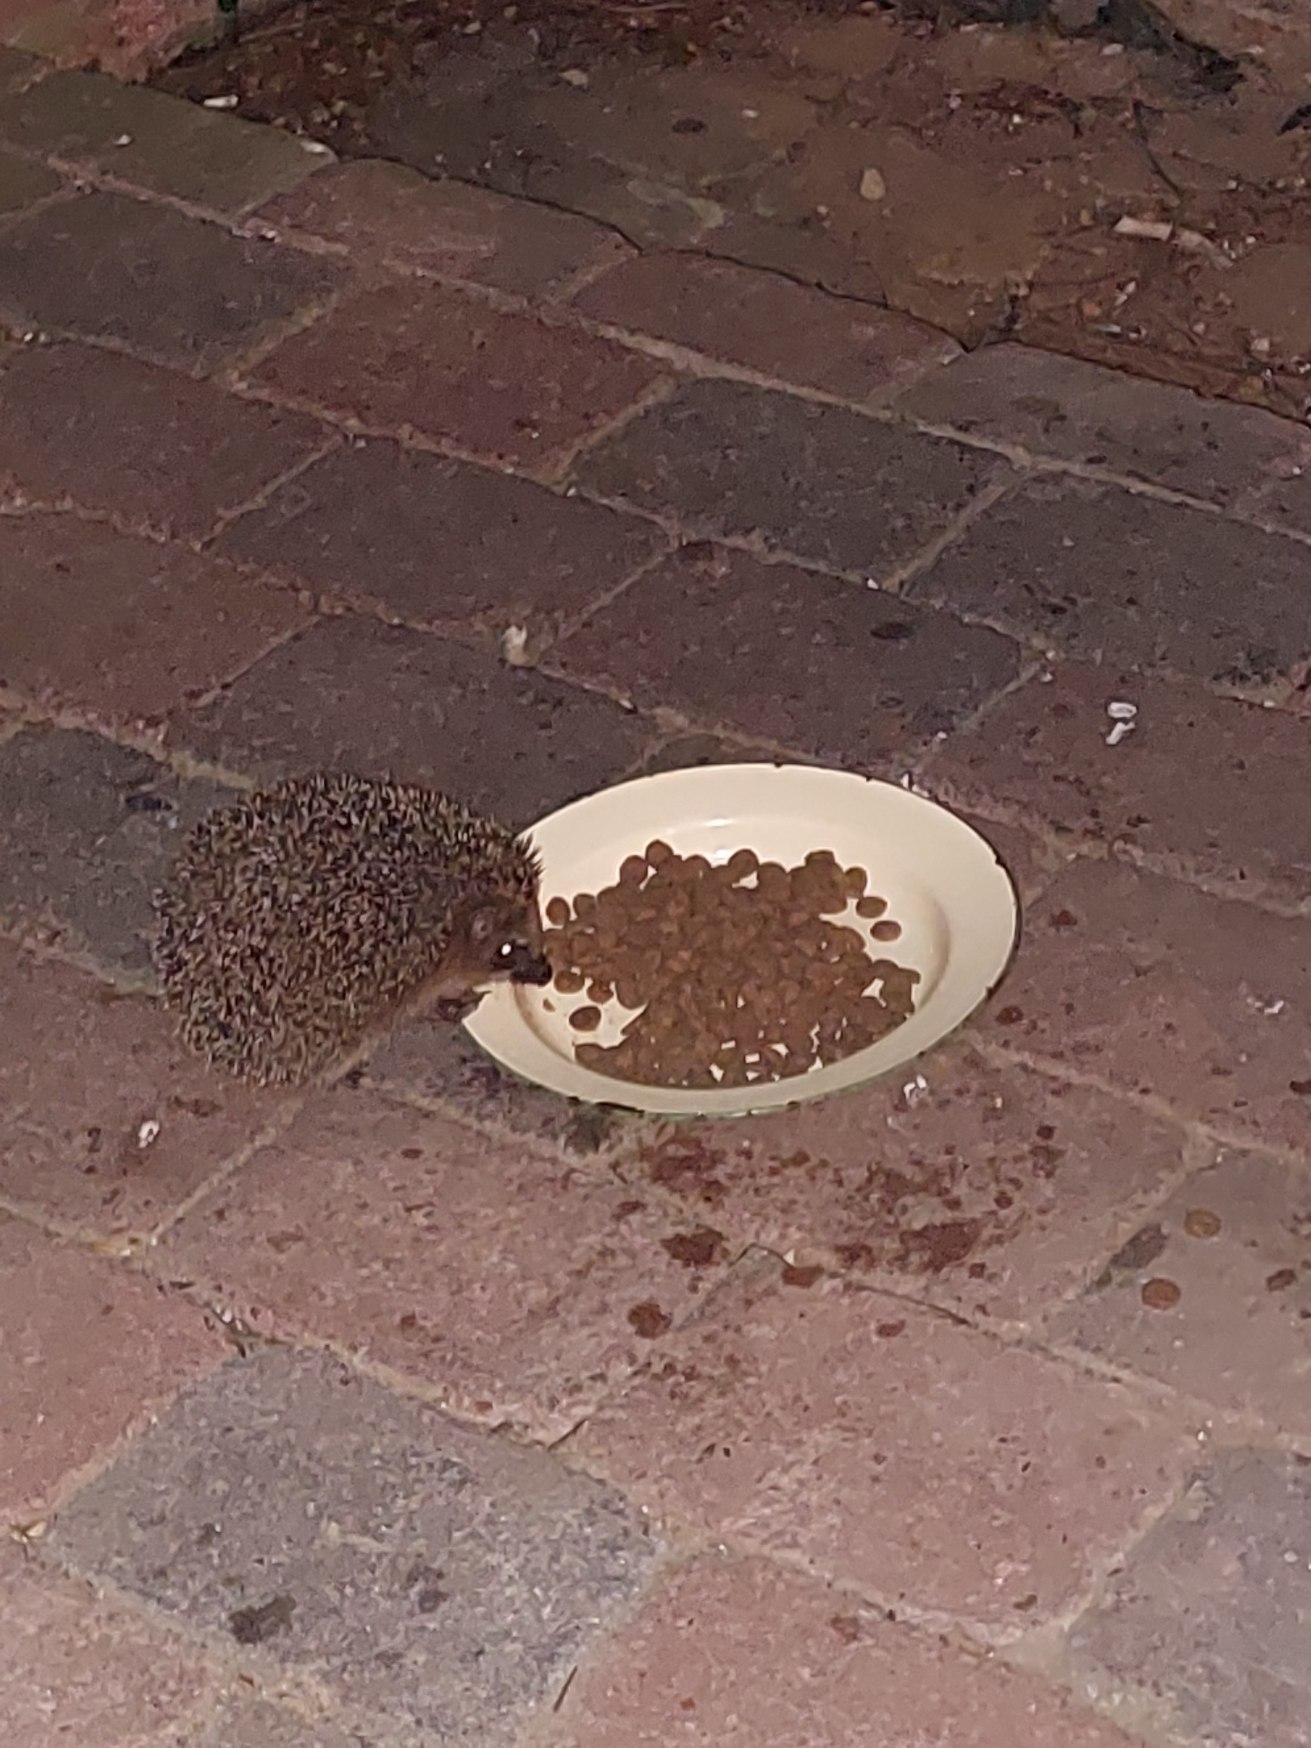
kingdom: Animalia
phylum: Chordata
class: Mammalia
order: Erinaceomorpha
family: Erinaceidae
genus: Erinaceus
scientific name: Erinaceus europaeus
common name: Pindsvin
